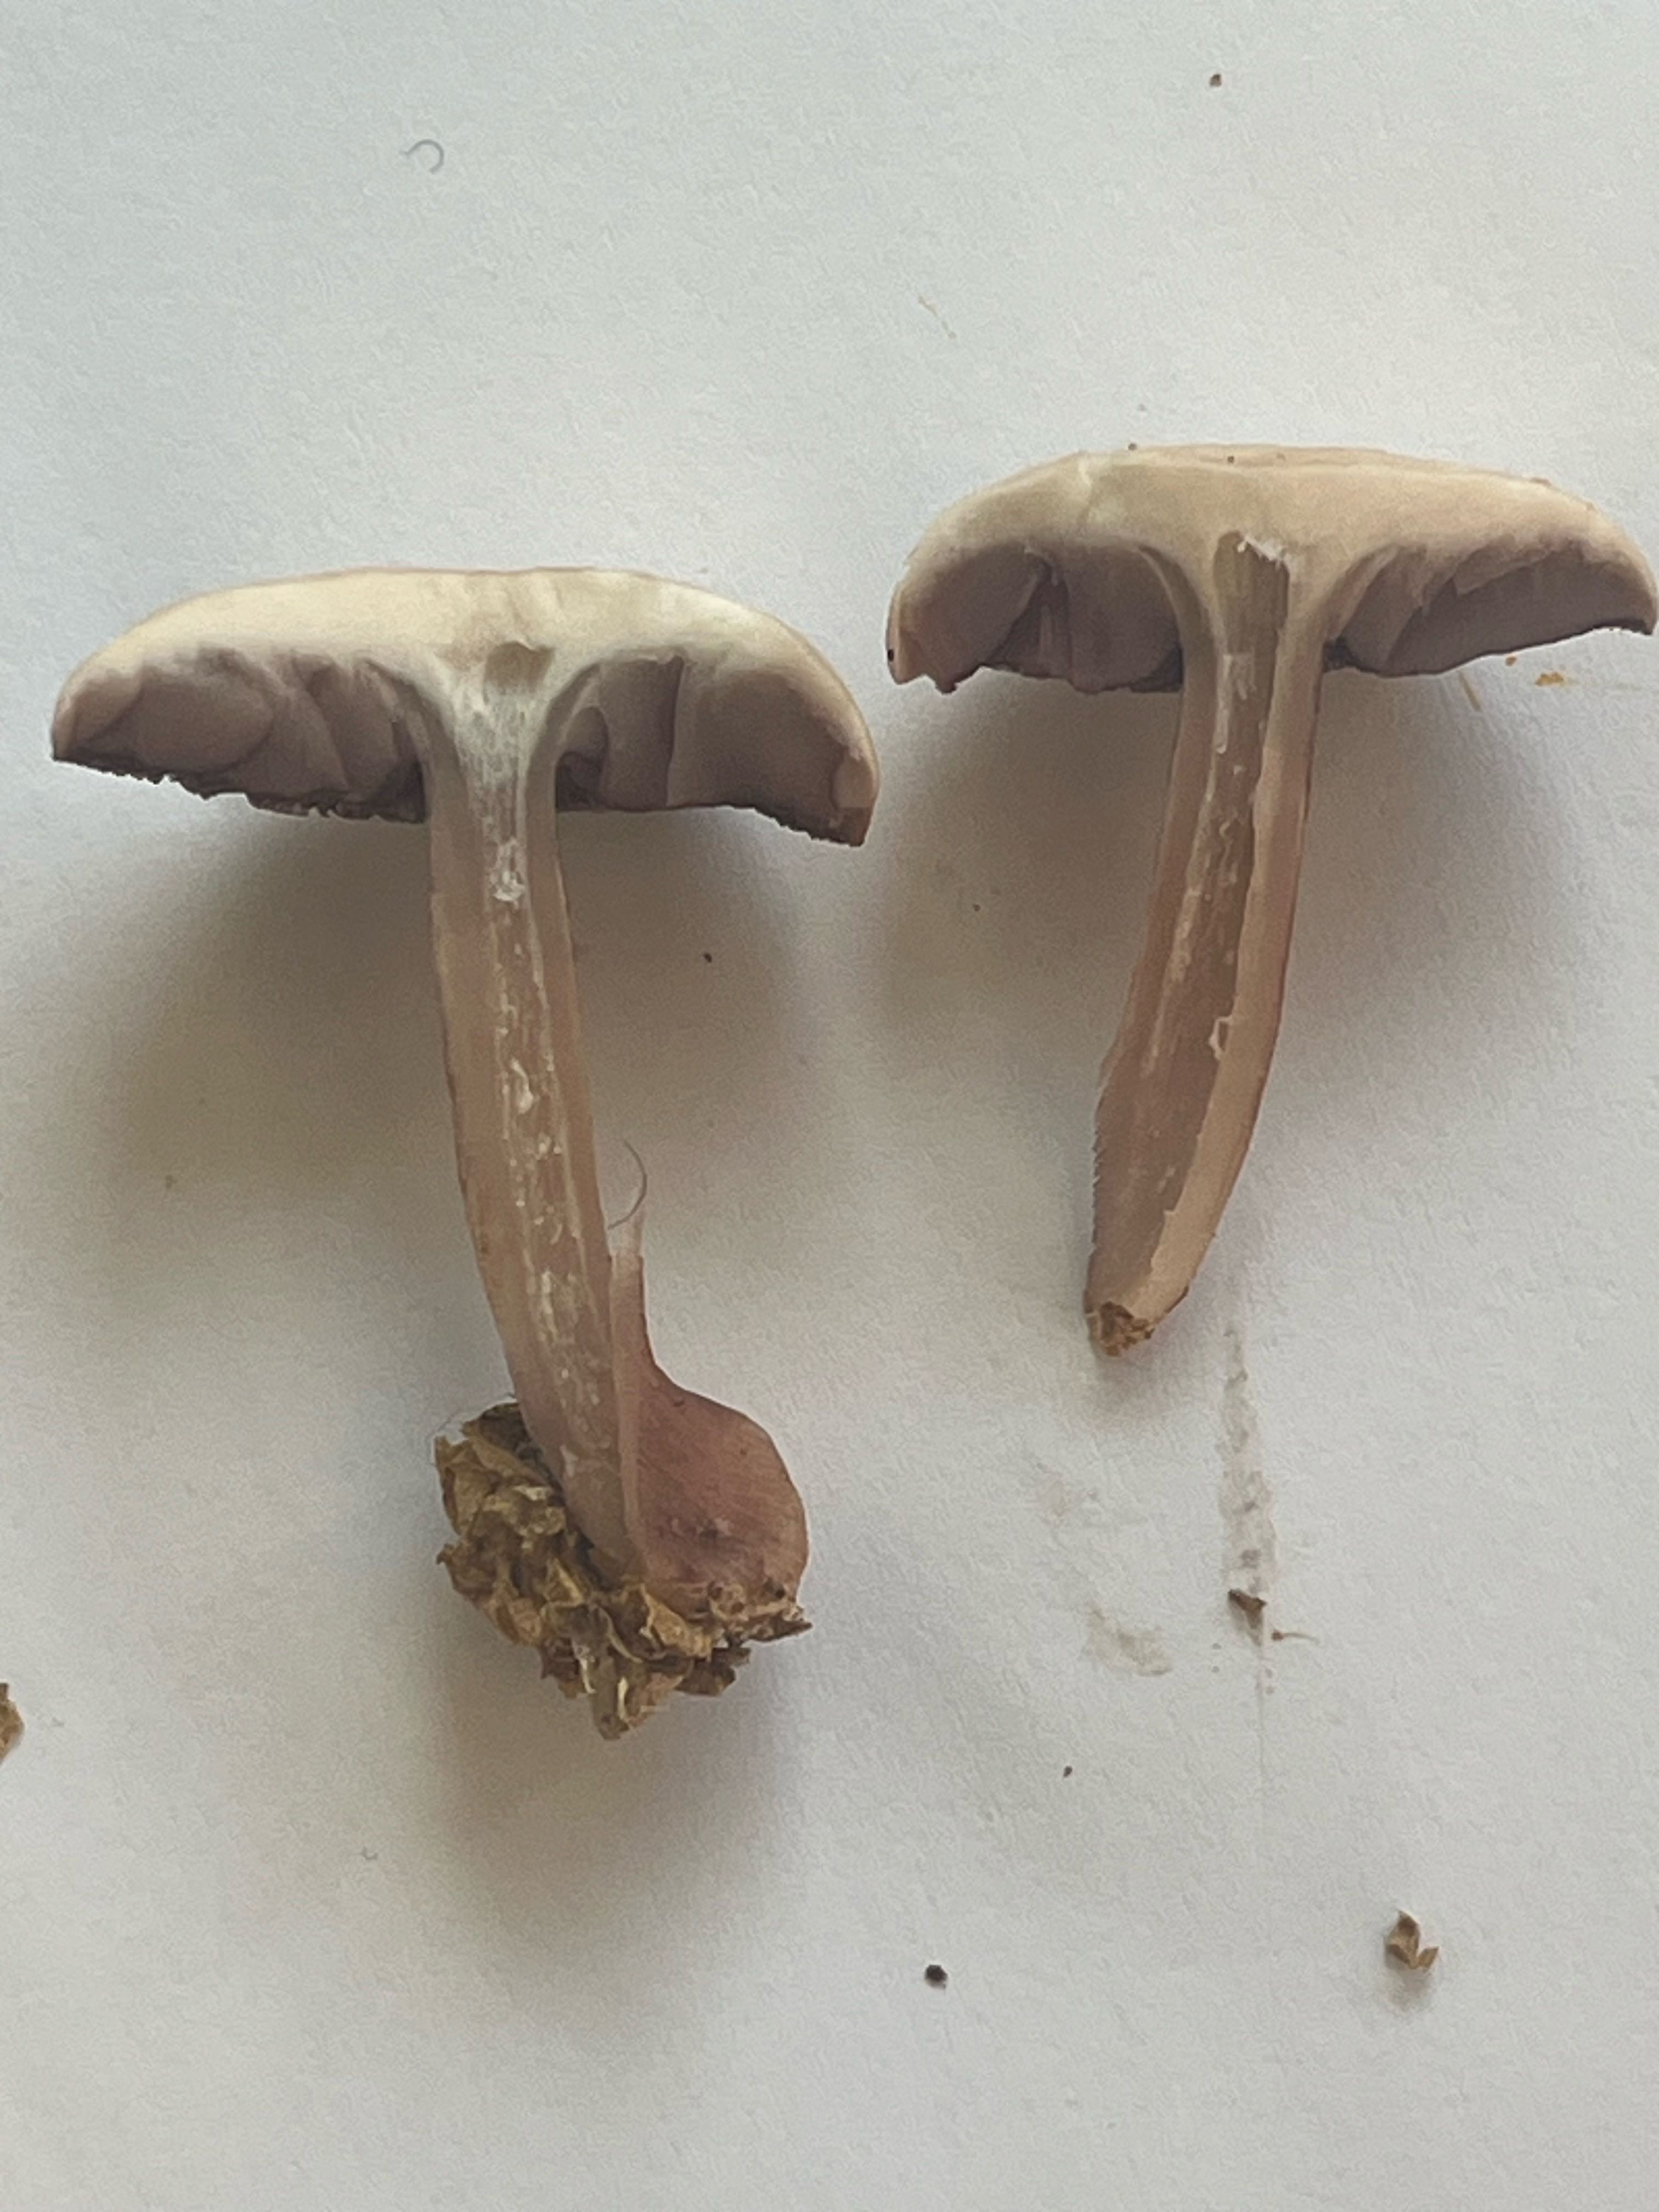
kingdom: Fungi
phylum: Basidiomycota
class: Agaricomycetes
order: Agaricales
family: Mycenaceae
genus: Mycena
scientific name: Mycena pelianthina
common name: mørkbladet huesvamp
